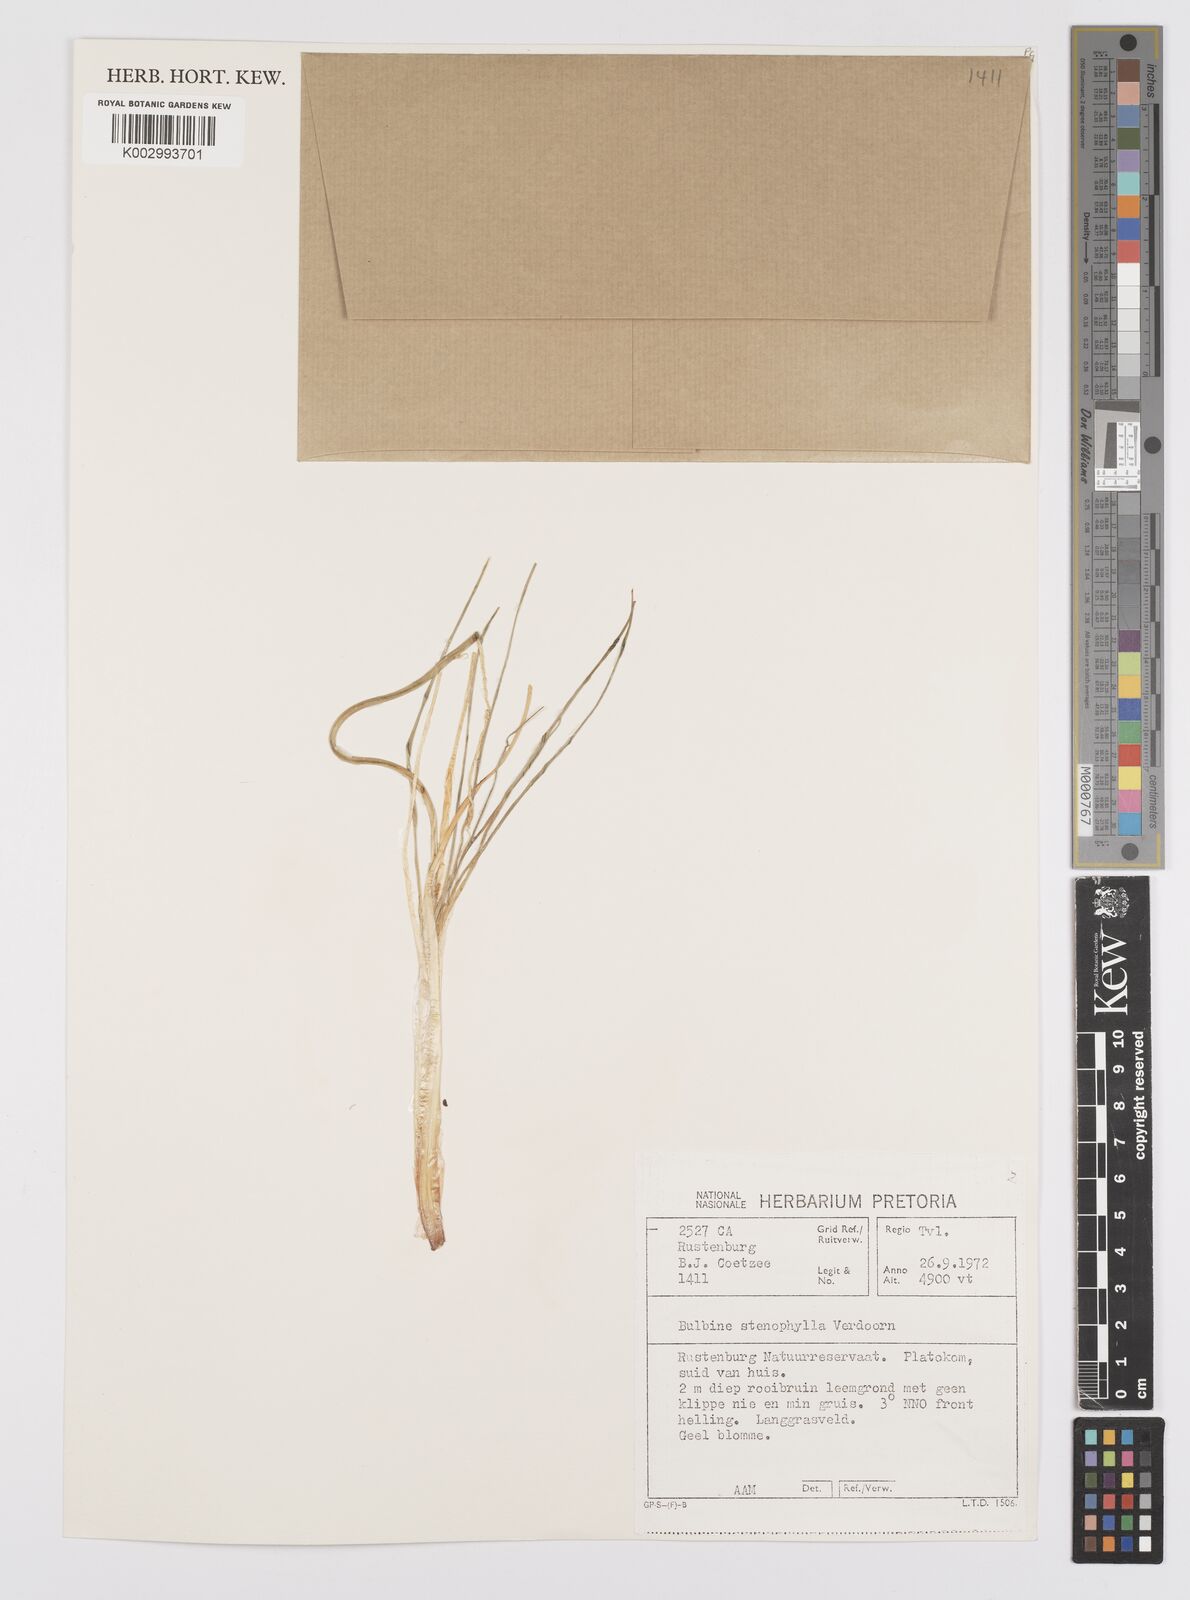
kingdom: Plantae
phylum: Tracheophyta
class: Liliopsida
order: Asparagales
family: Asphodelaceae
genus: Bulbine
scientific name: Bulbine capitata
